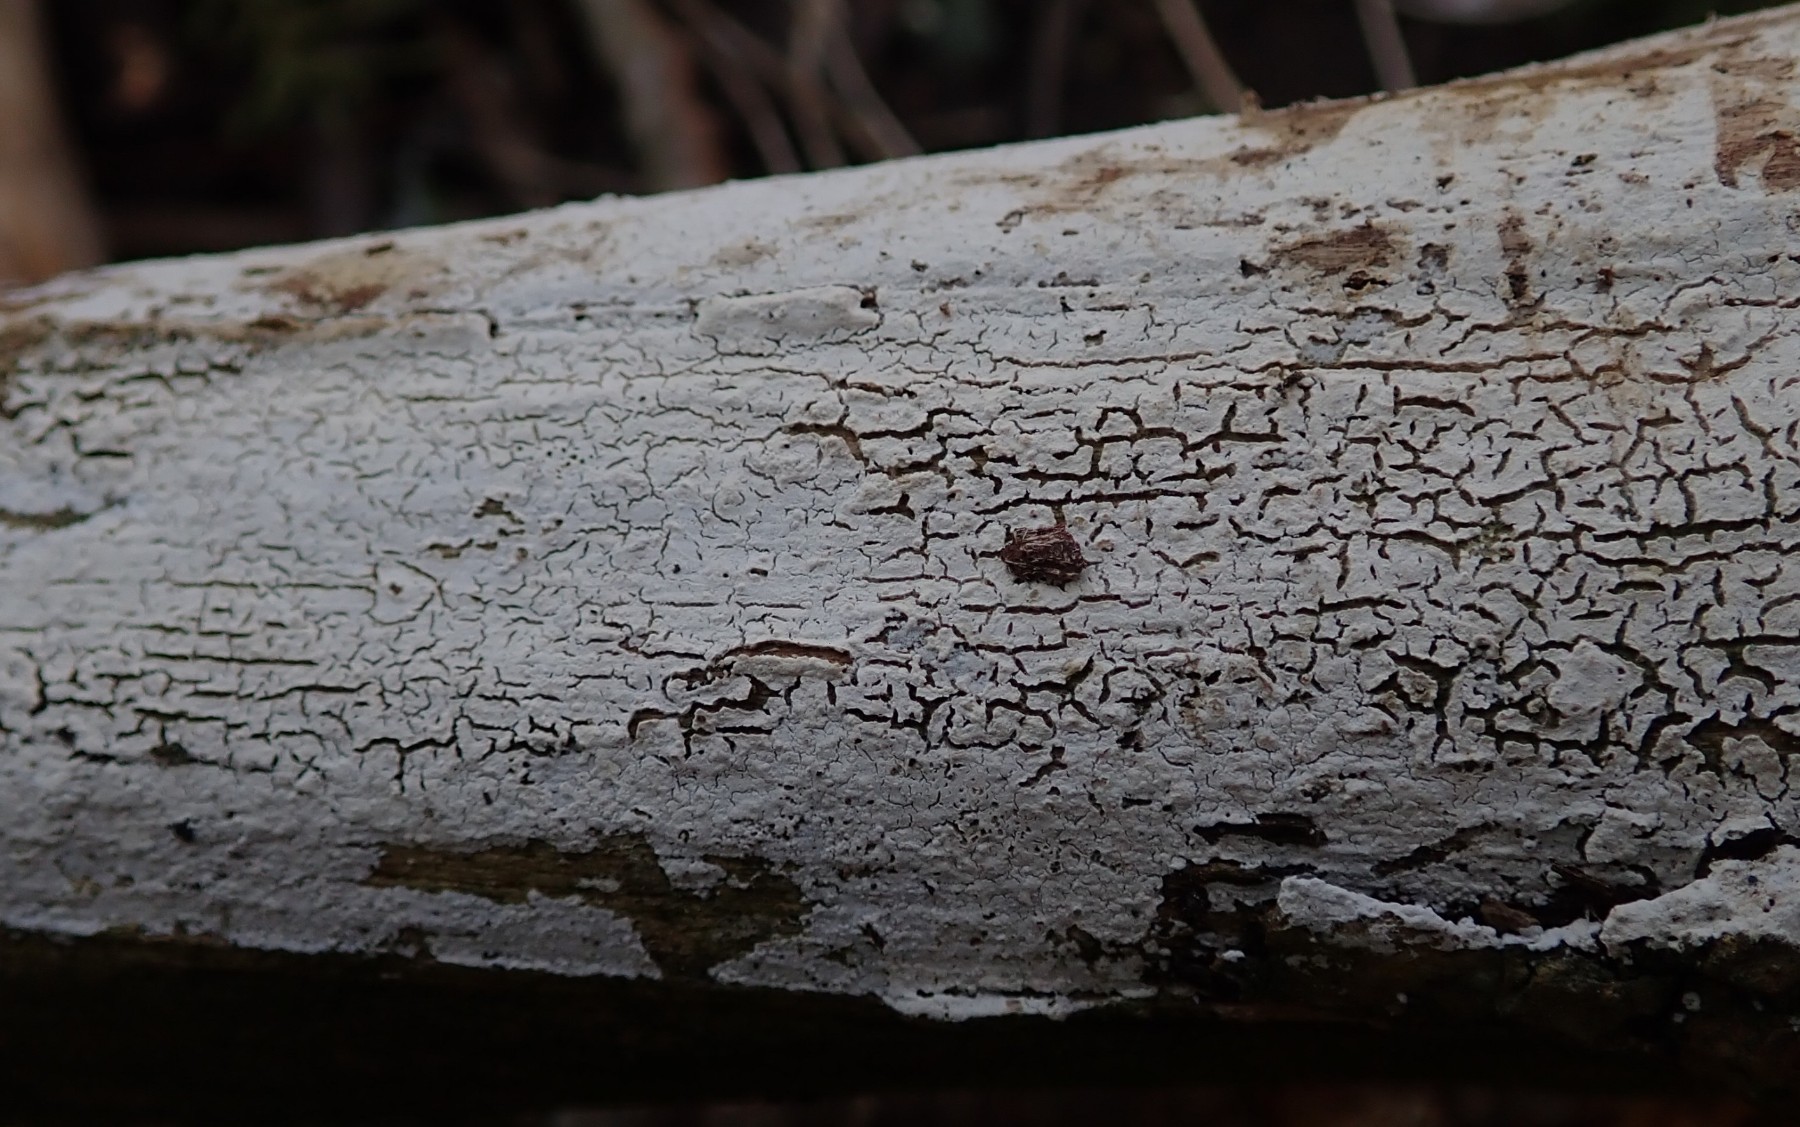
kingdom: Fungi
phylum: Basidiomycota
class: Agaricomycetes
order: Corticiales
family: Corticiaceae
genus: Lyomyces
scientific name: Lyomyces sambuci
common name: almindelig hyldehinde
